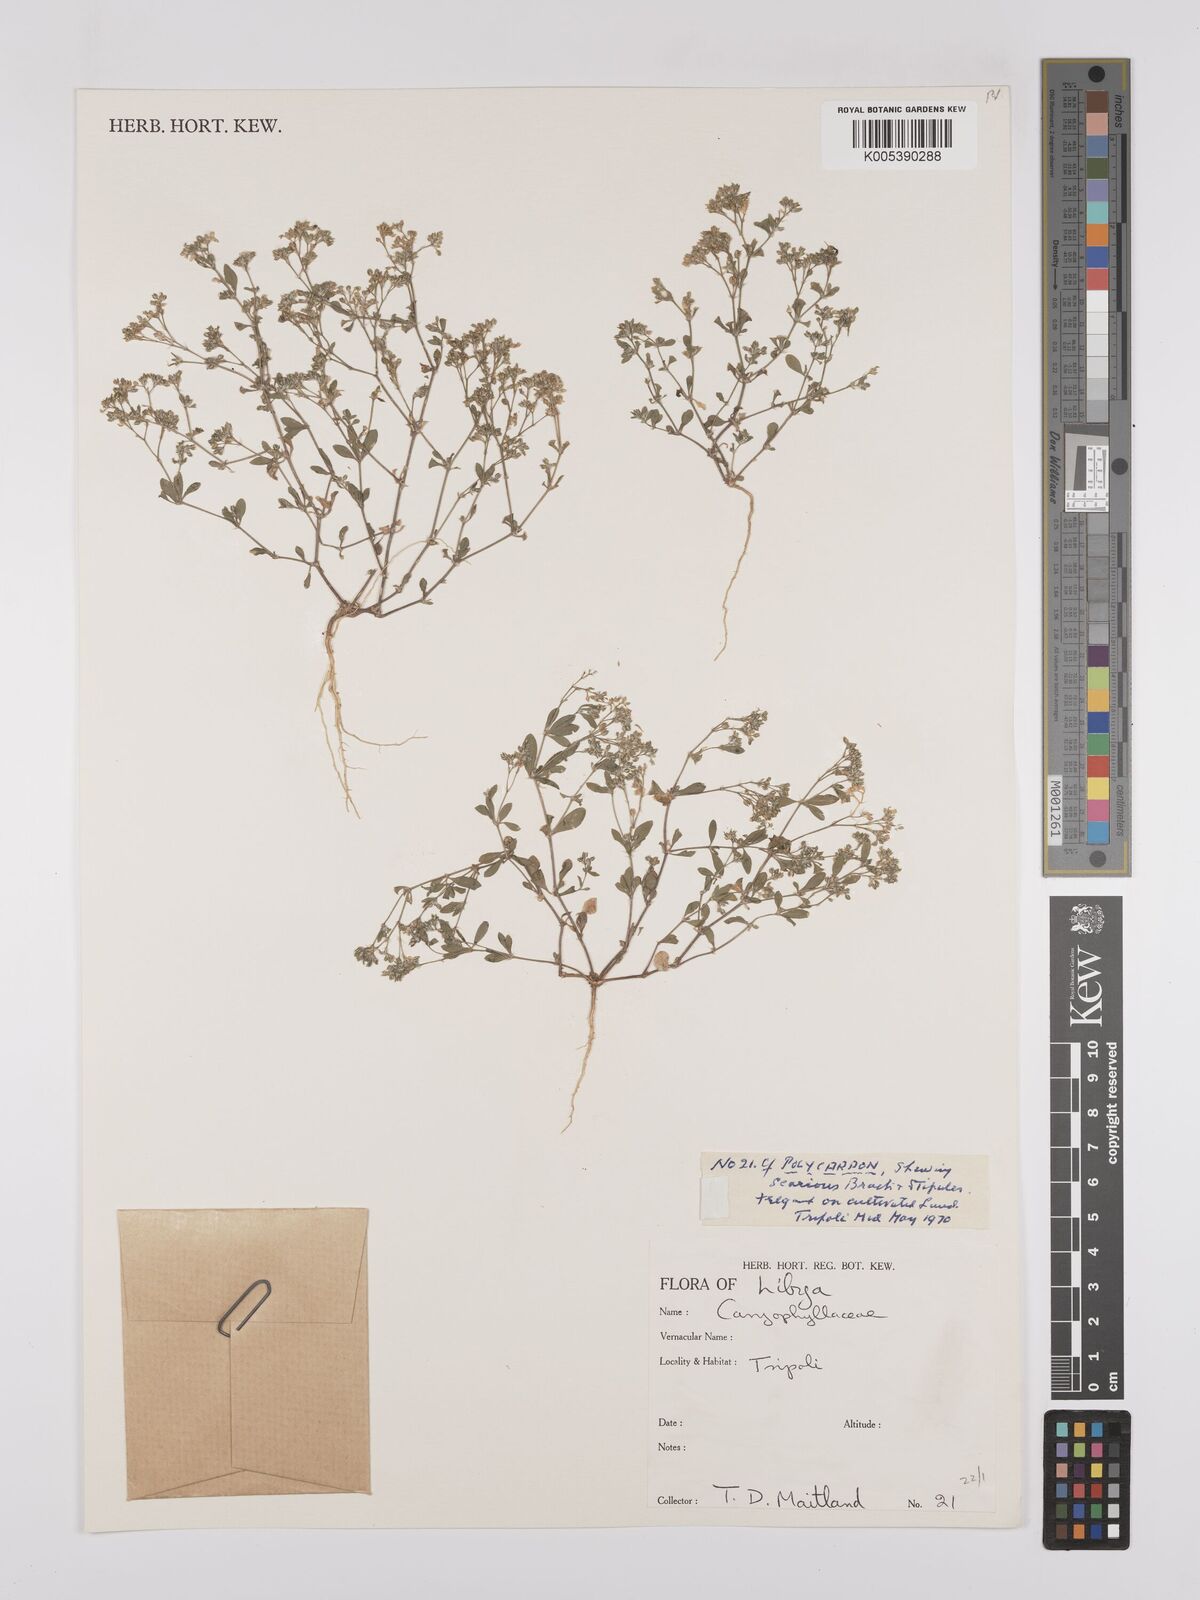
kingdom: Plantae
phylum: Tracheophyta
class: Magnoliopsida
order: Caryophyllales
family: Caryophyllaceae
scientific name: Caryophyllaceae
